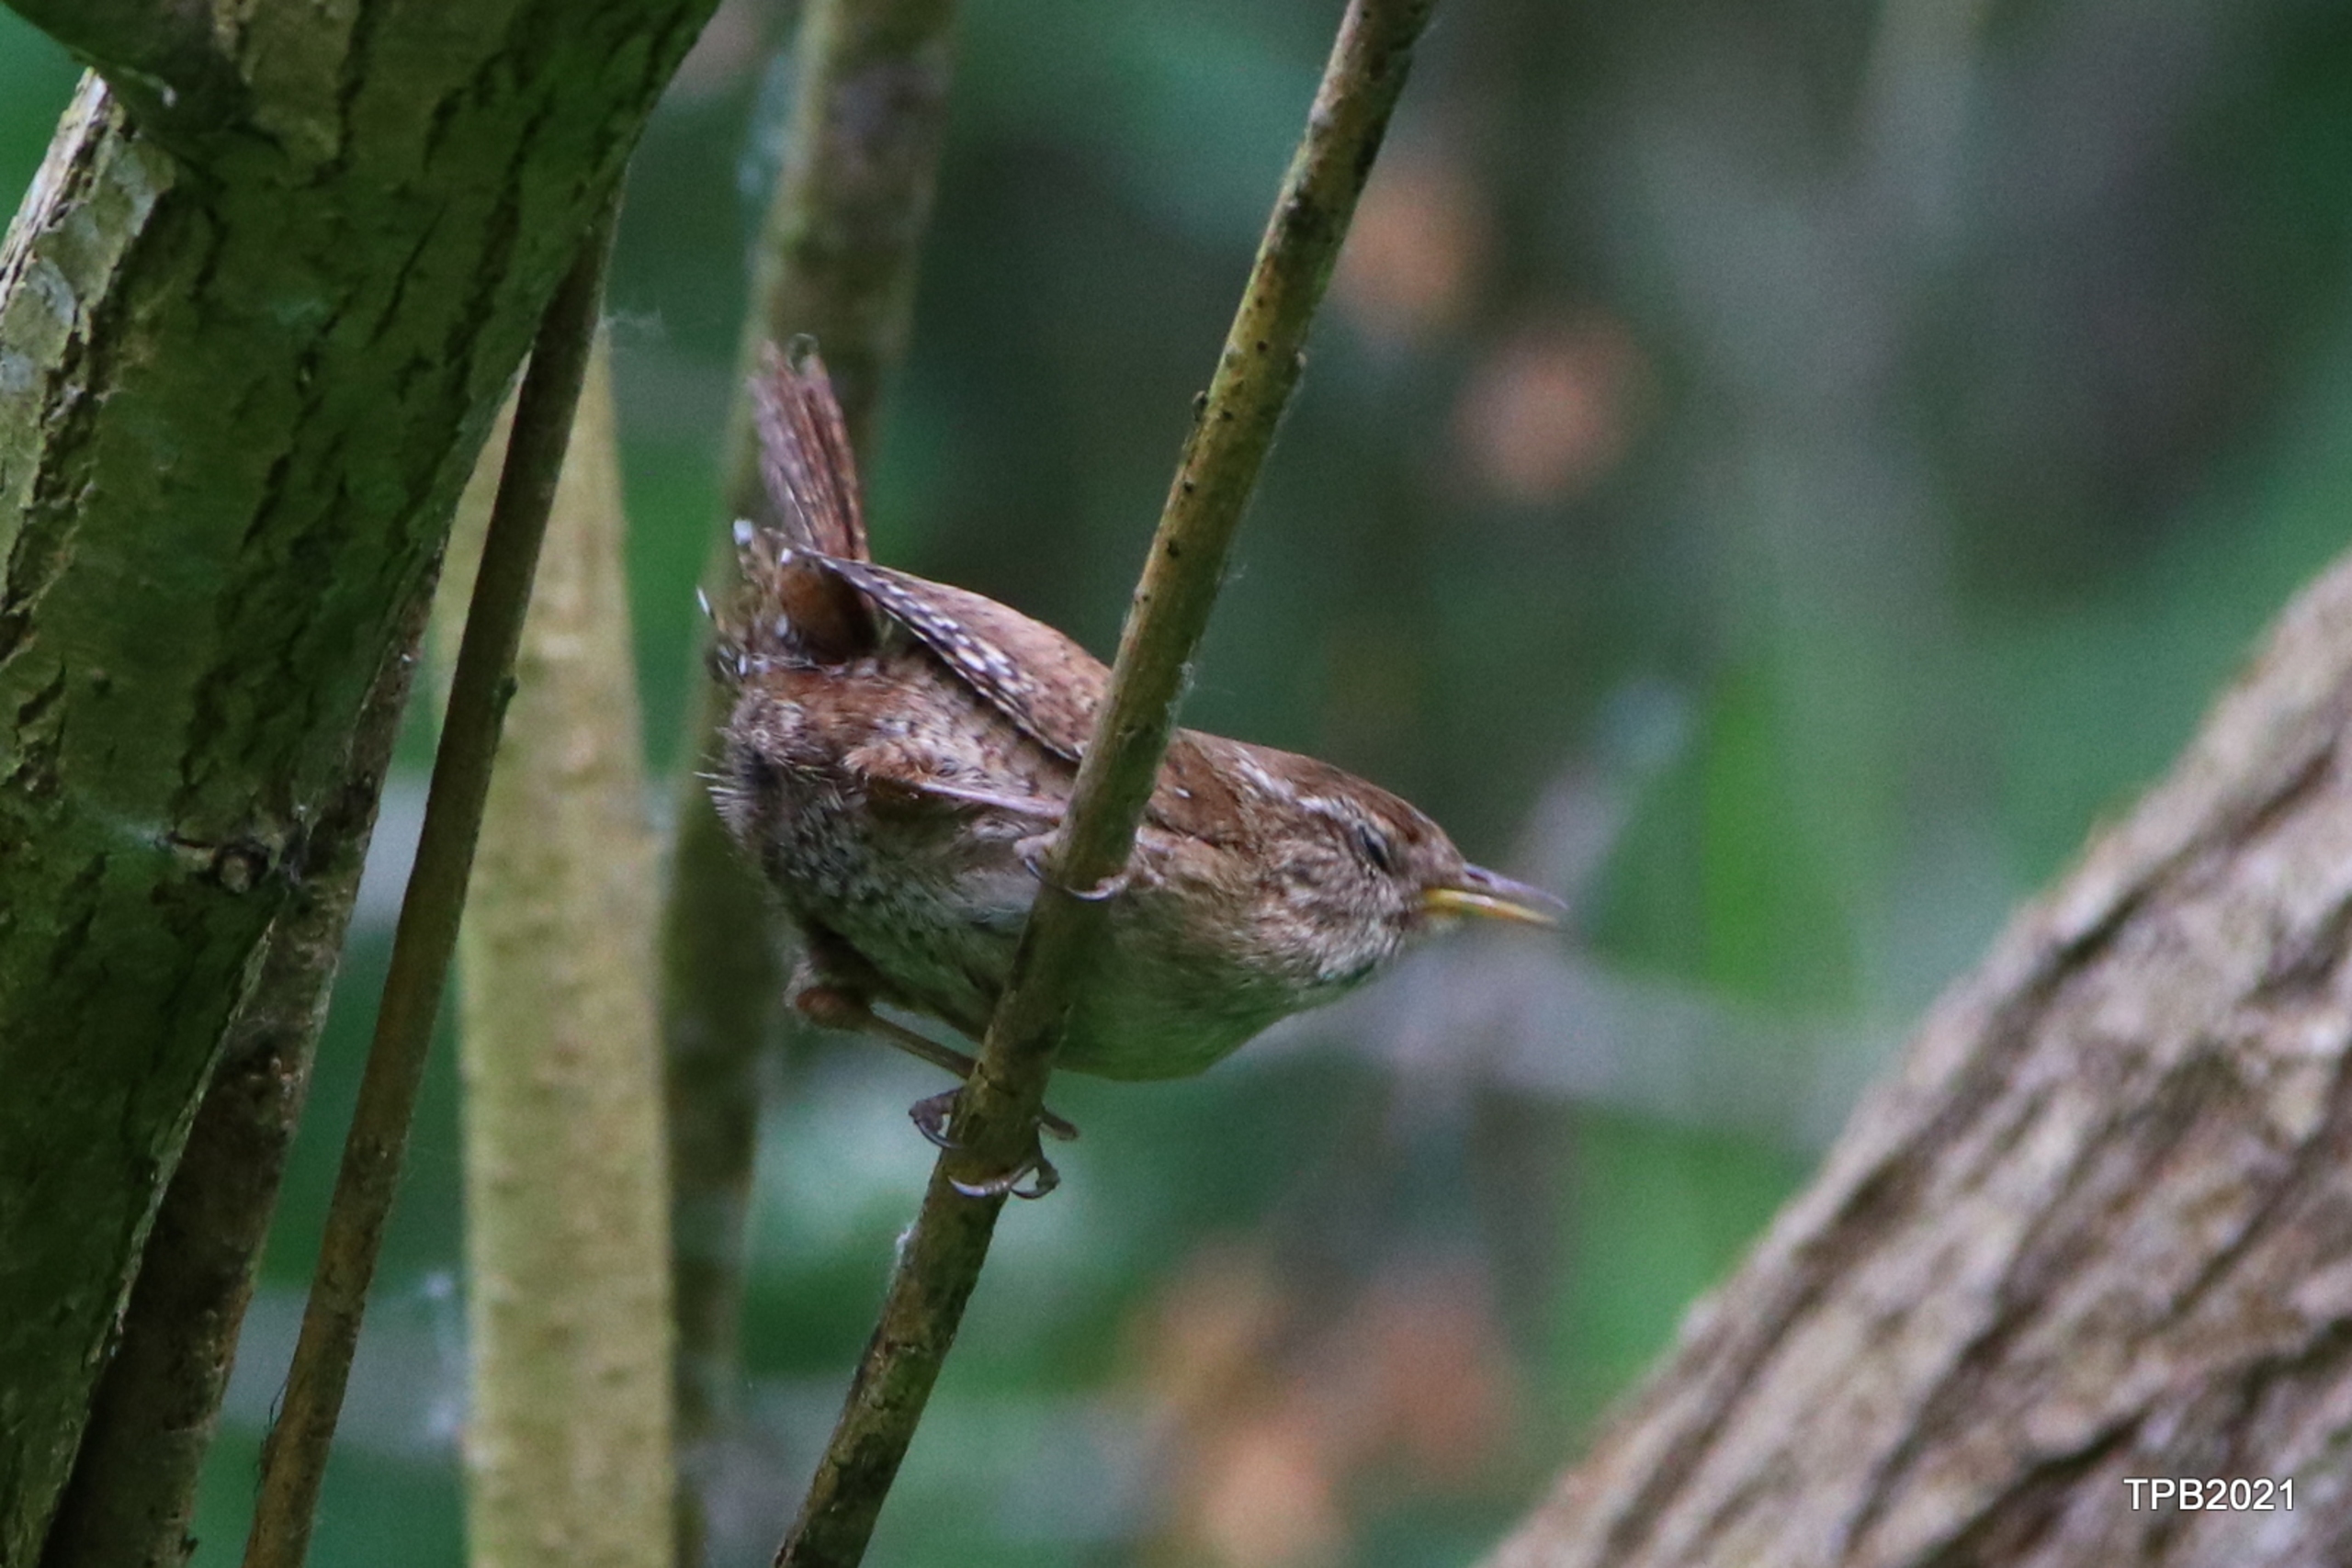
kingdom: Animalia
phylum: Chordata
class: Aves
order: Passeriformes
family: Troglodytidae
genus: Troglodytes
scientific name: Troglodytes troglodytes
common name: Gærdesmutte
